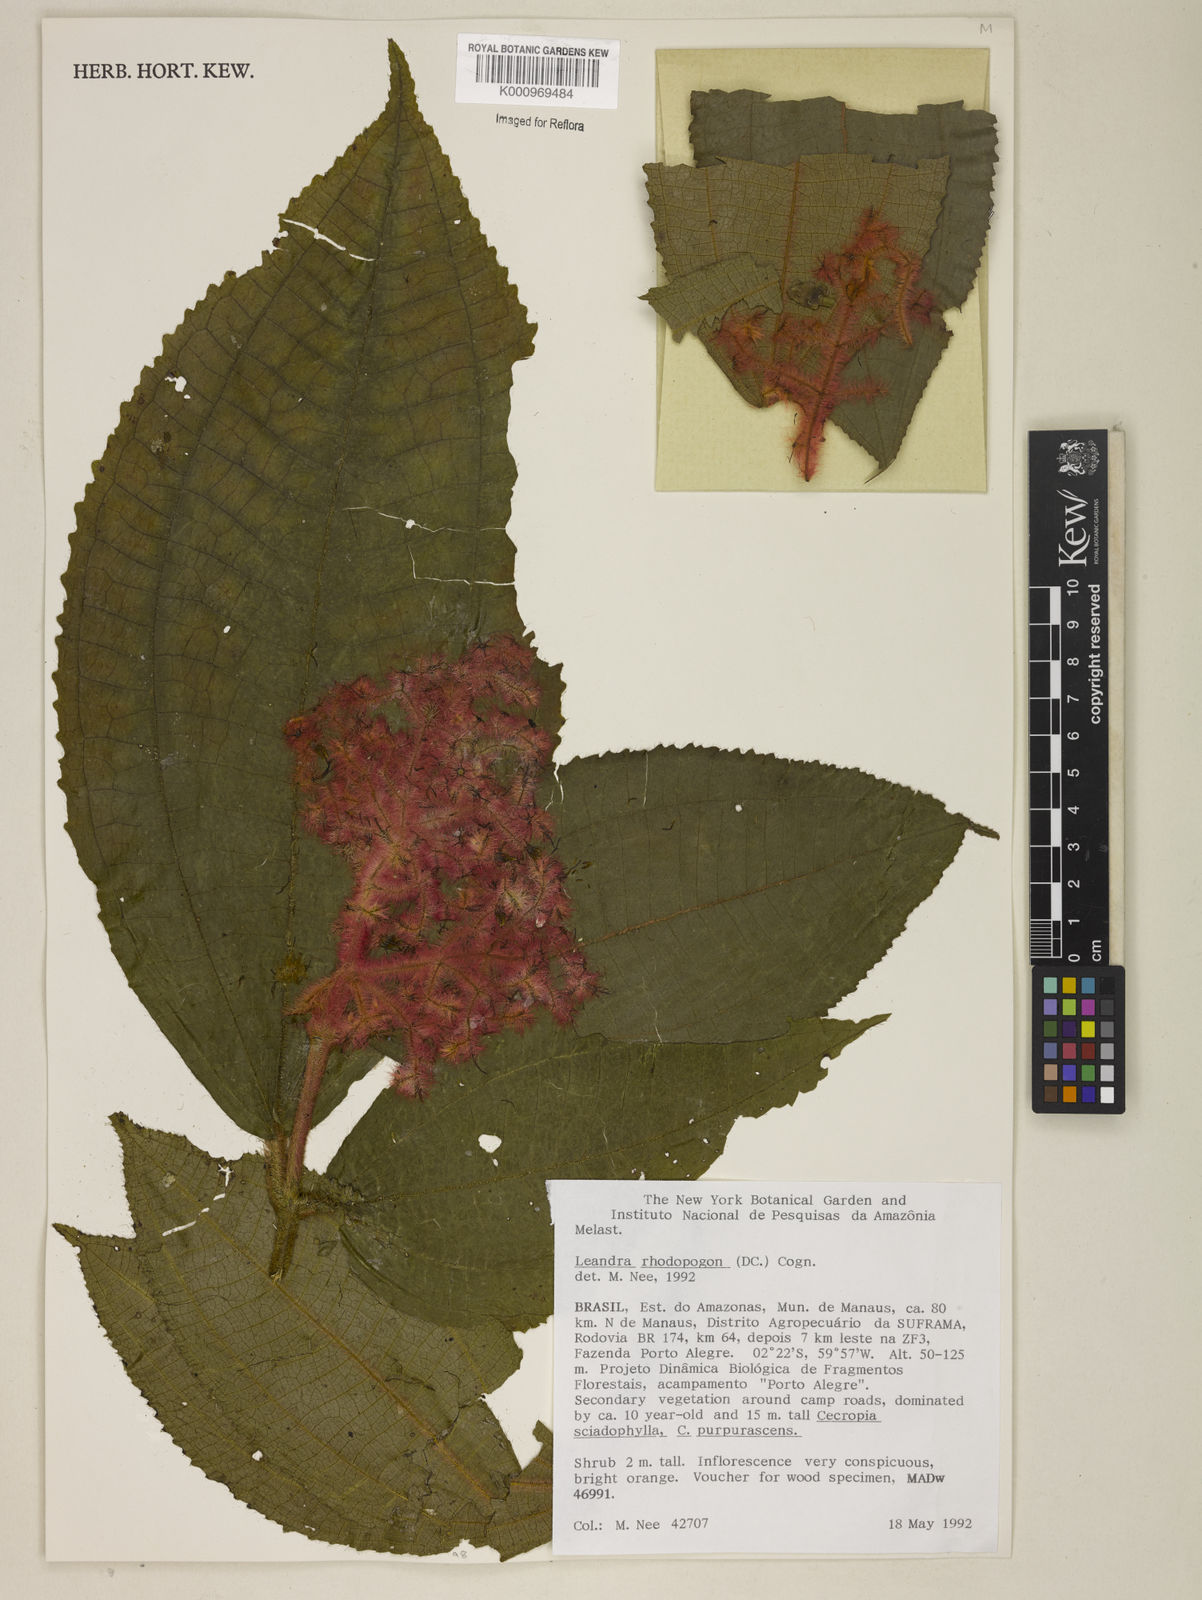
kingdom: Plantae
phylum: Tracheophyta
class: Magnoliopsida
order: Myrtales
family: Melastomataceae
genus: Miconia
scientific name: Miconia rhodopogon
